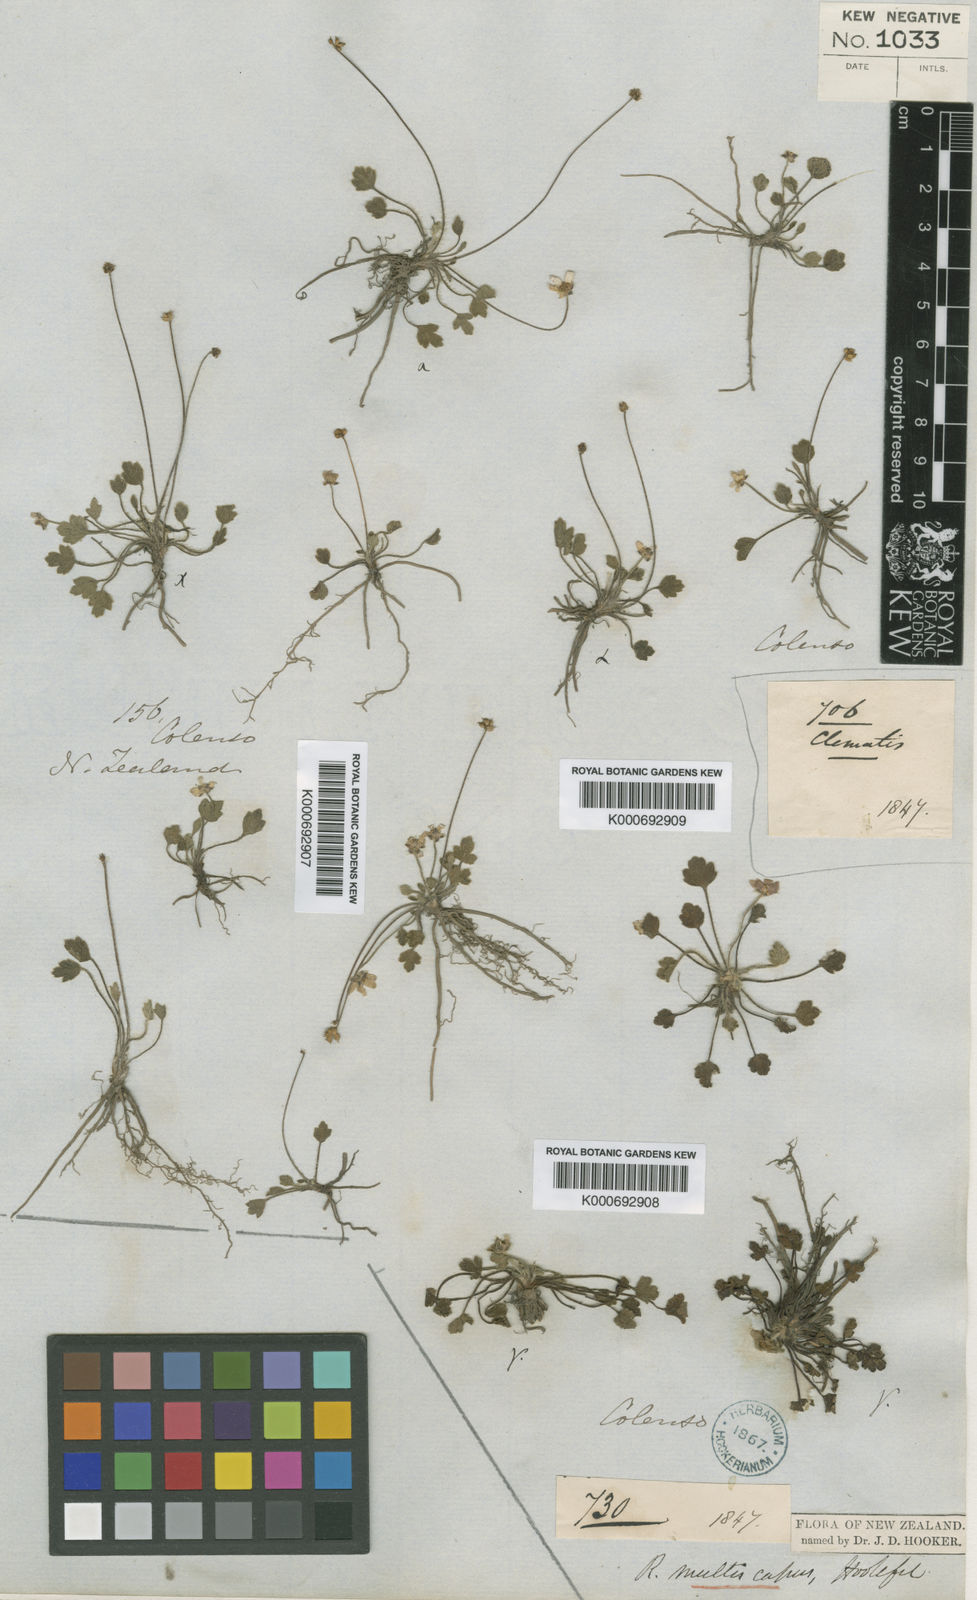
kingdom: Plantae
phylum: Tracheophyta
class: Magnoliopsida
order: Ranunculales
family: Ranunculaceae
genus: Ranunculus
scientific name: Ranunculus lappaceus
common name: Australian buttercup
